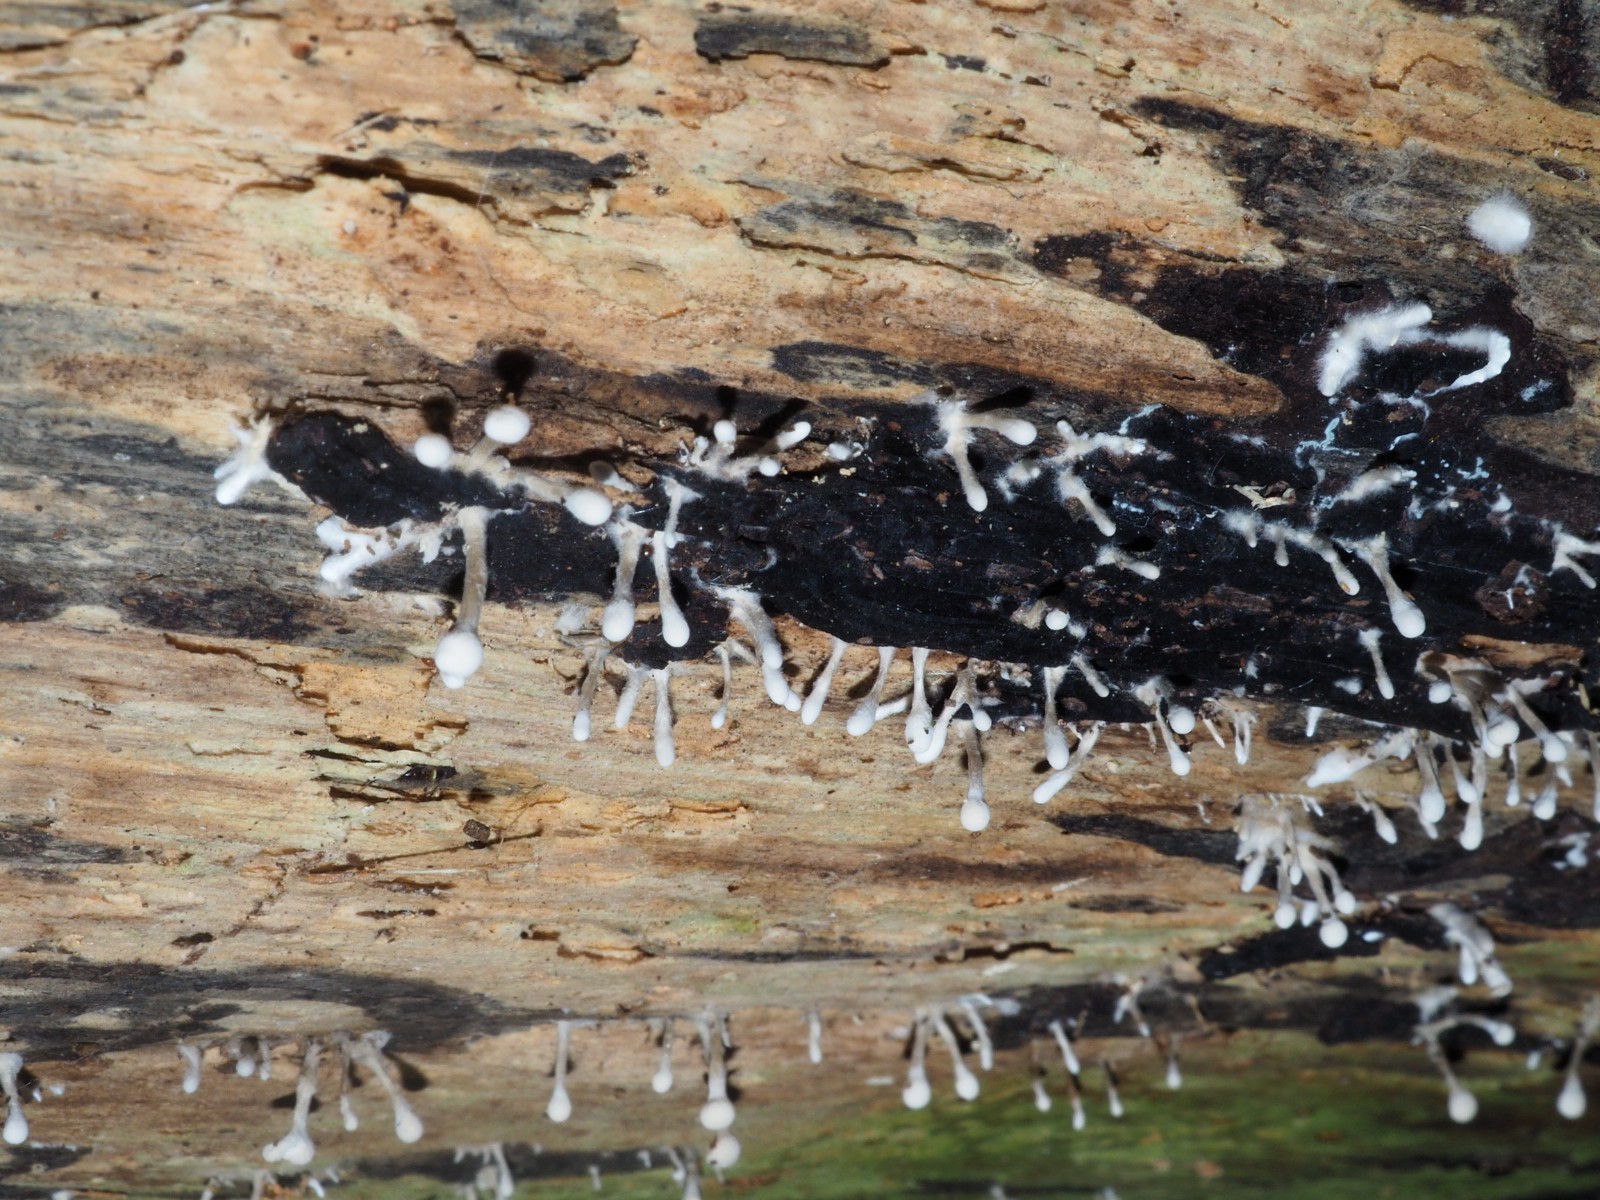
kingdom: Fungi
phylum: Basidiomycota
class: Atractiellomycetes
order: Atractiellales
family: Phleogenaceae
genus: Phleogena
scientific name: Phleogena faginea
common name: pudderkølle
